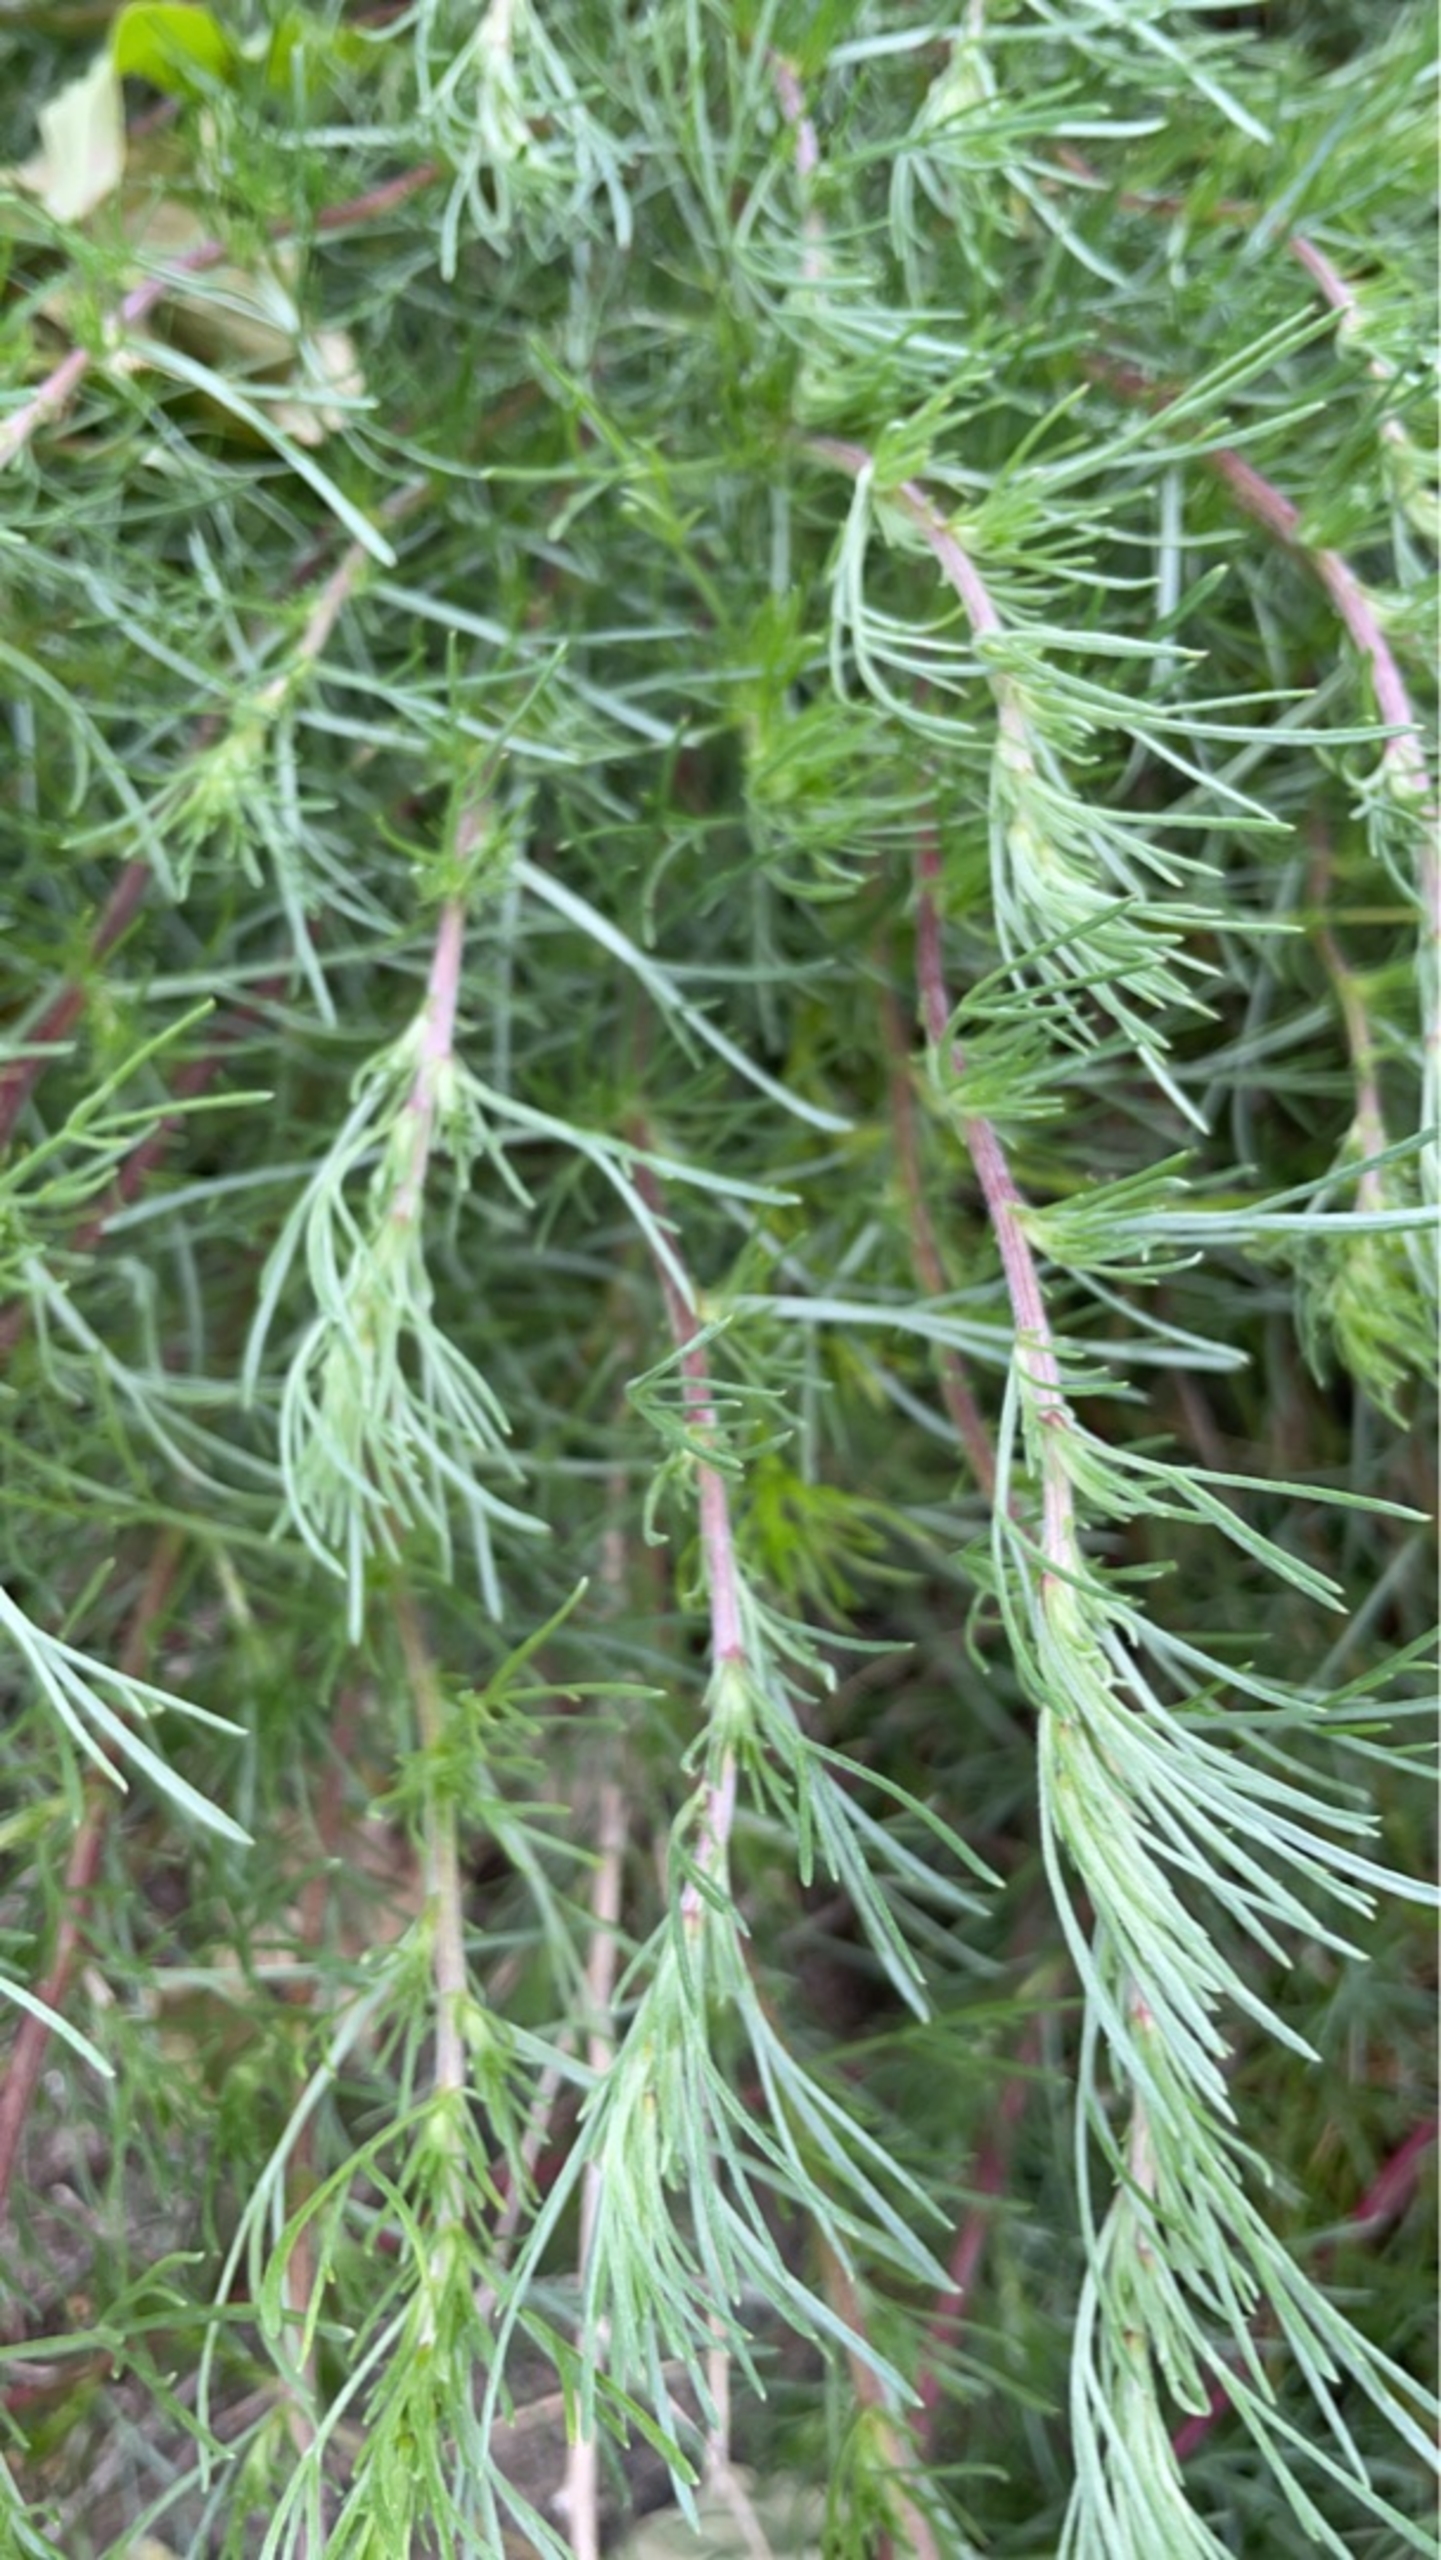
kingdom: Plantae
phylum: Tracheophyta
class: Magnoliopsida
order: Asterales
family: Asteraceae
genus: Artemisia
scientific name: Artemisia campestris
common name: Mark-bynke
